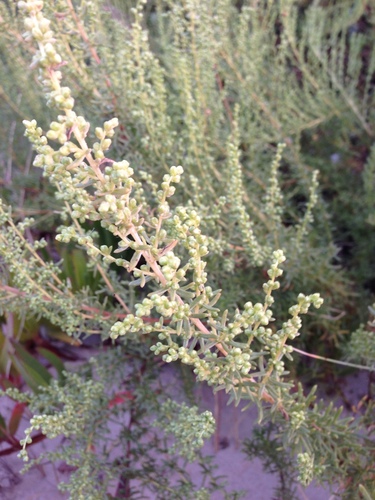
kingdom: Plantae
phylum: Tracheophyta
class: Magnoliopsida
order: Asterales
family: Asteraceae
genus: Artemisia
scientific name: Artemisia
